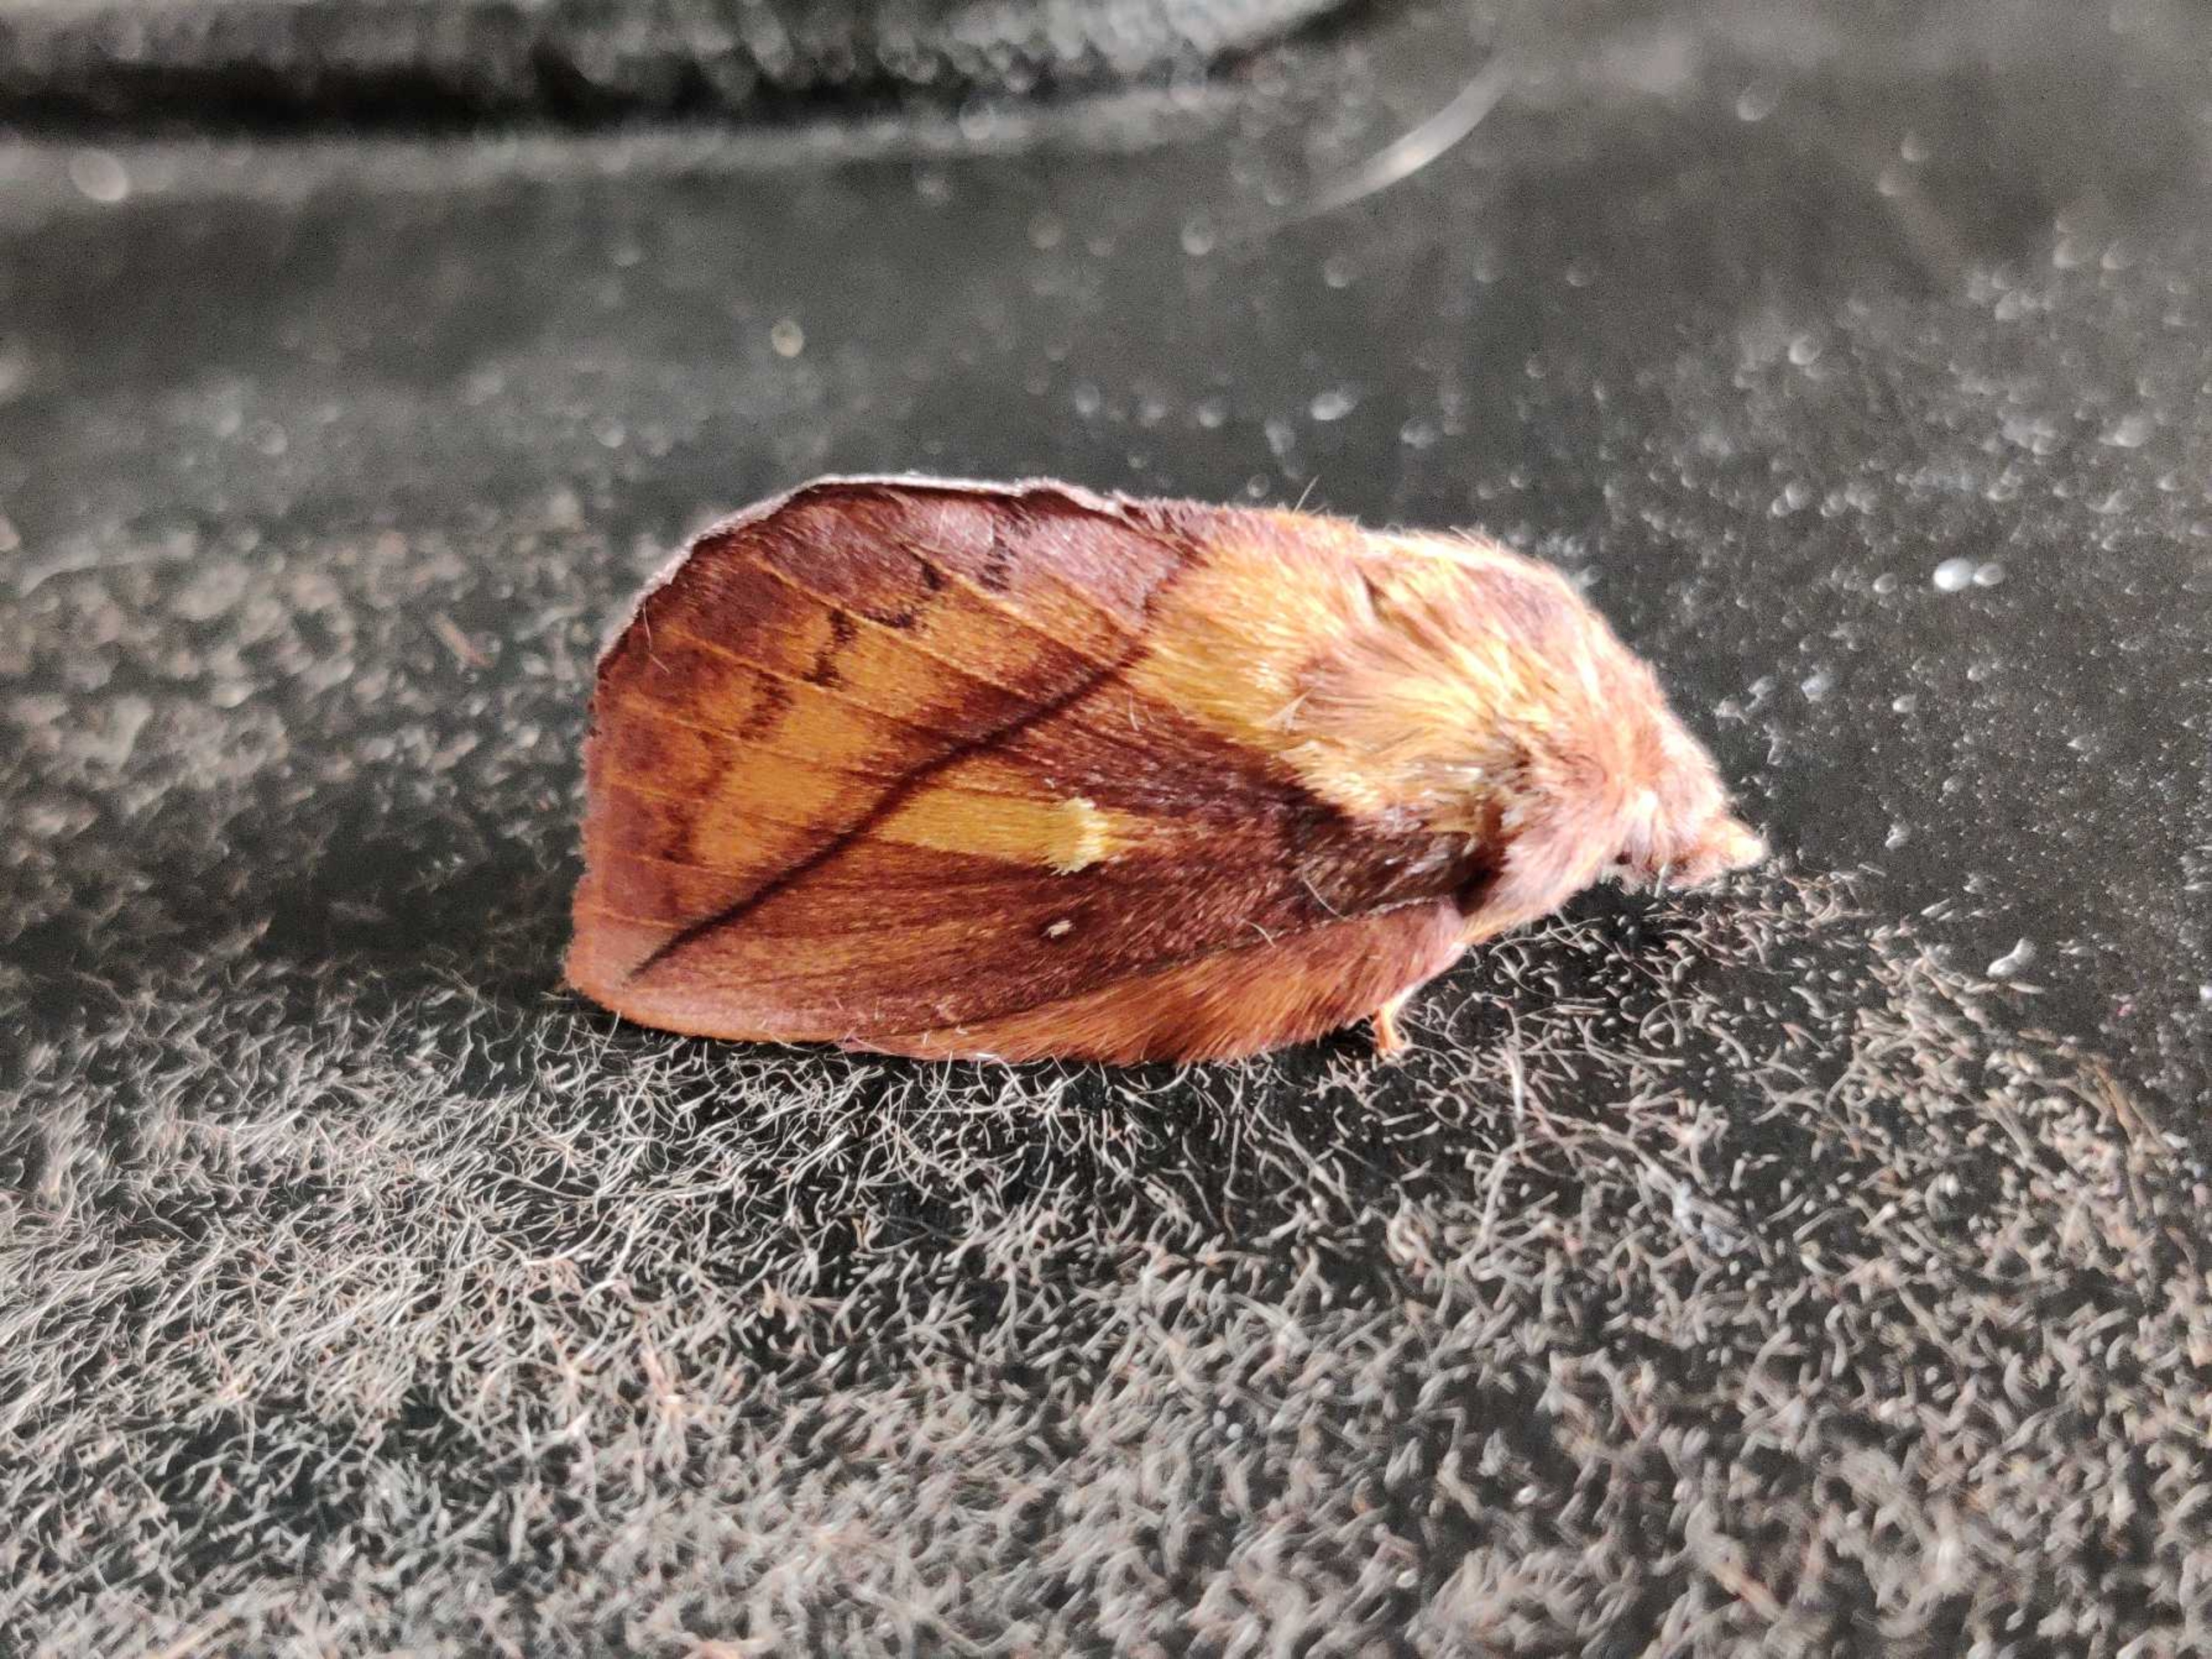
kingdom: Animalia
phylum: Arthropoda
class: Insecta
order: Lepidoptera
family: Lasiocampidae
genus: Euthrix
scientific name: Euthrix potatoria
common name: Græsspinder
